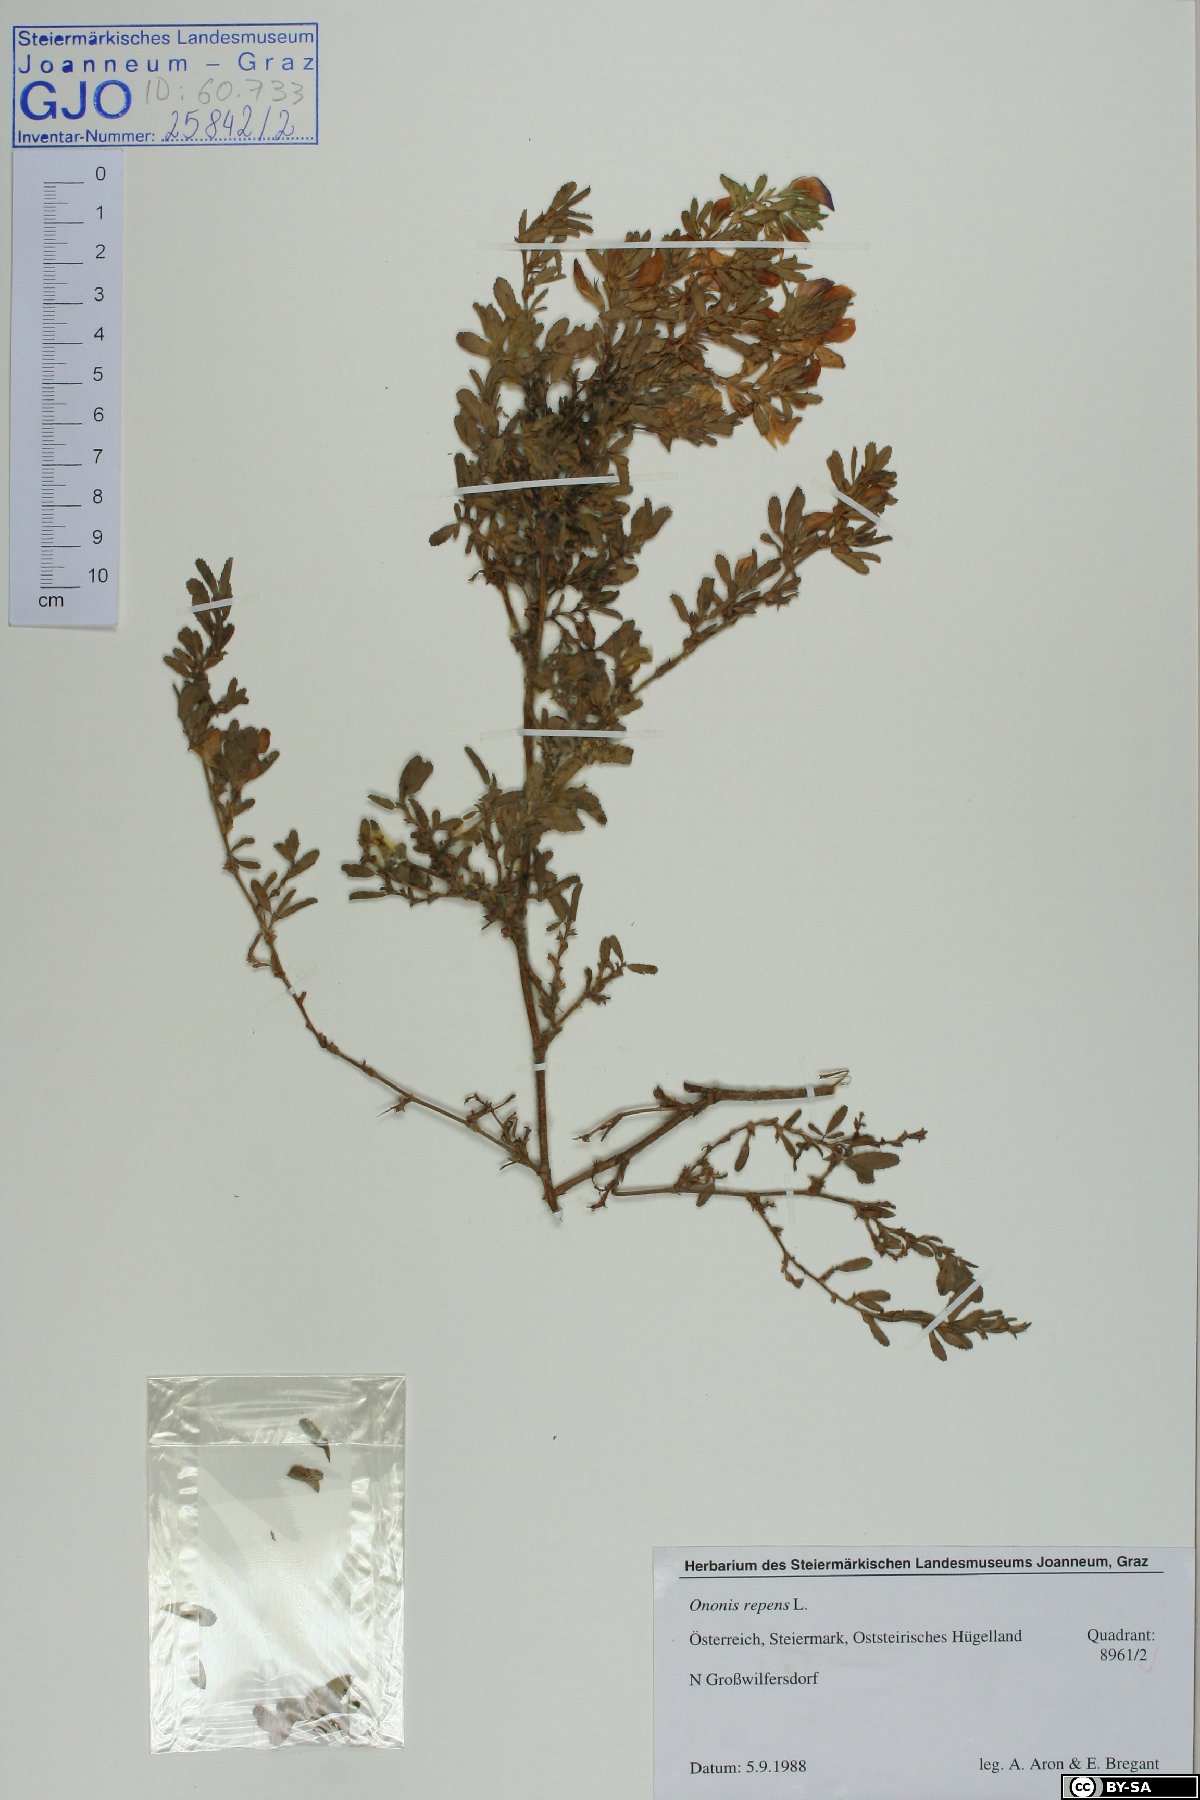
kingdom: Plantae
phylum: Tracheophyta
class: Magnoliopsida
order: Fabales
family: Fabaceae
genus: Ononis
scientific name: Ononis spinosa
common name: Spiny restharrow
